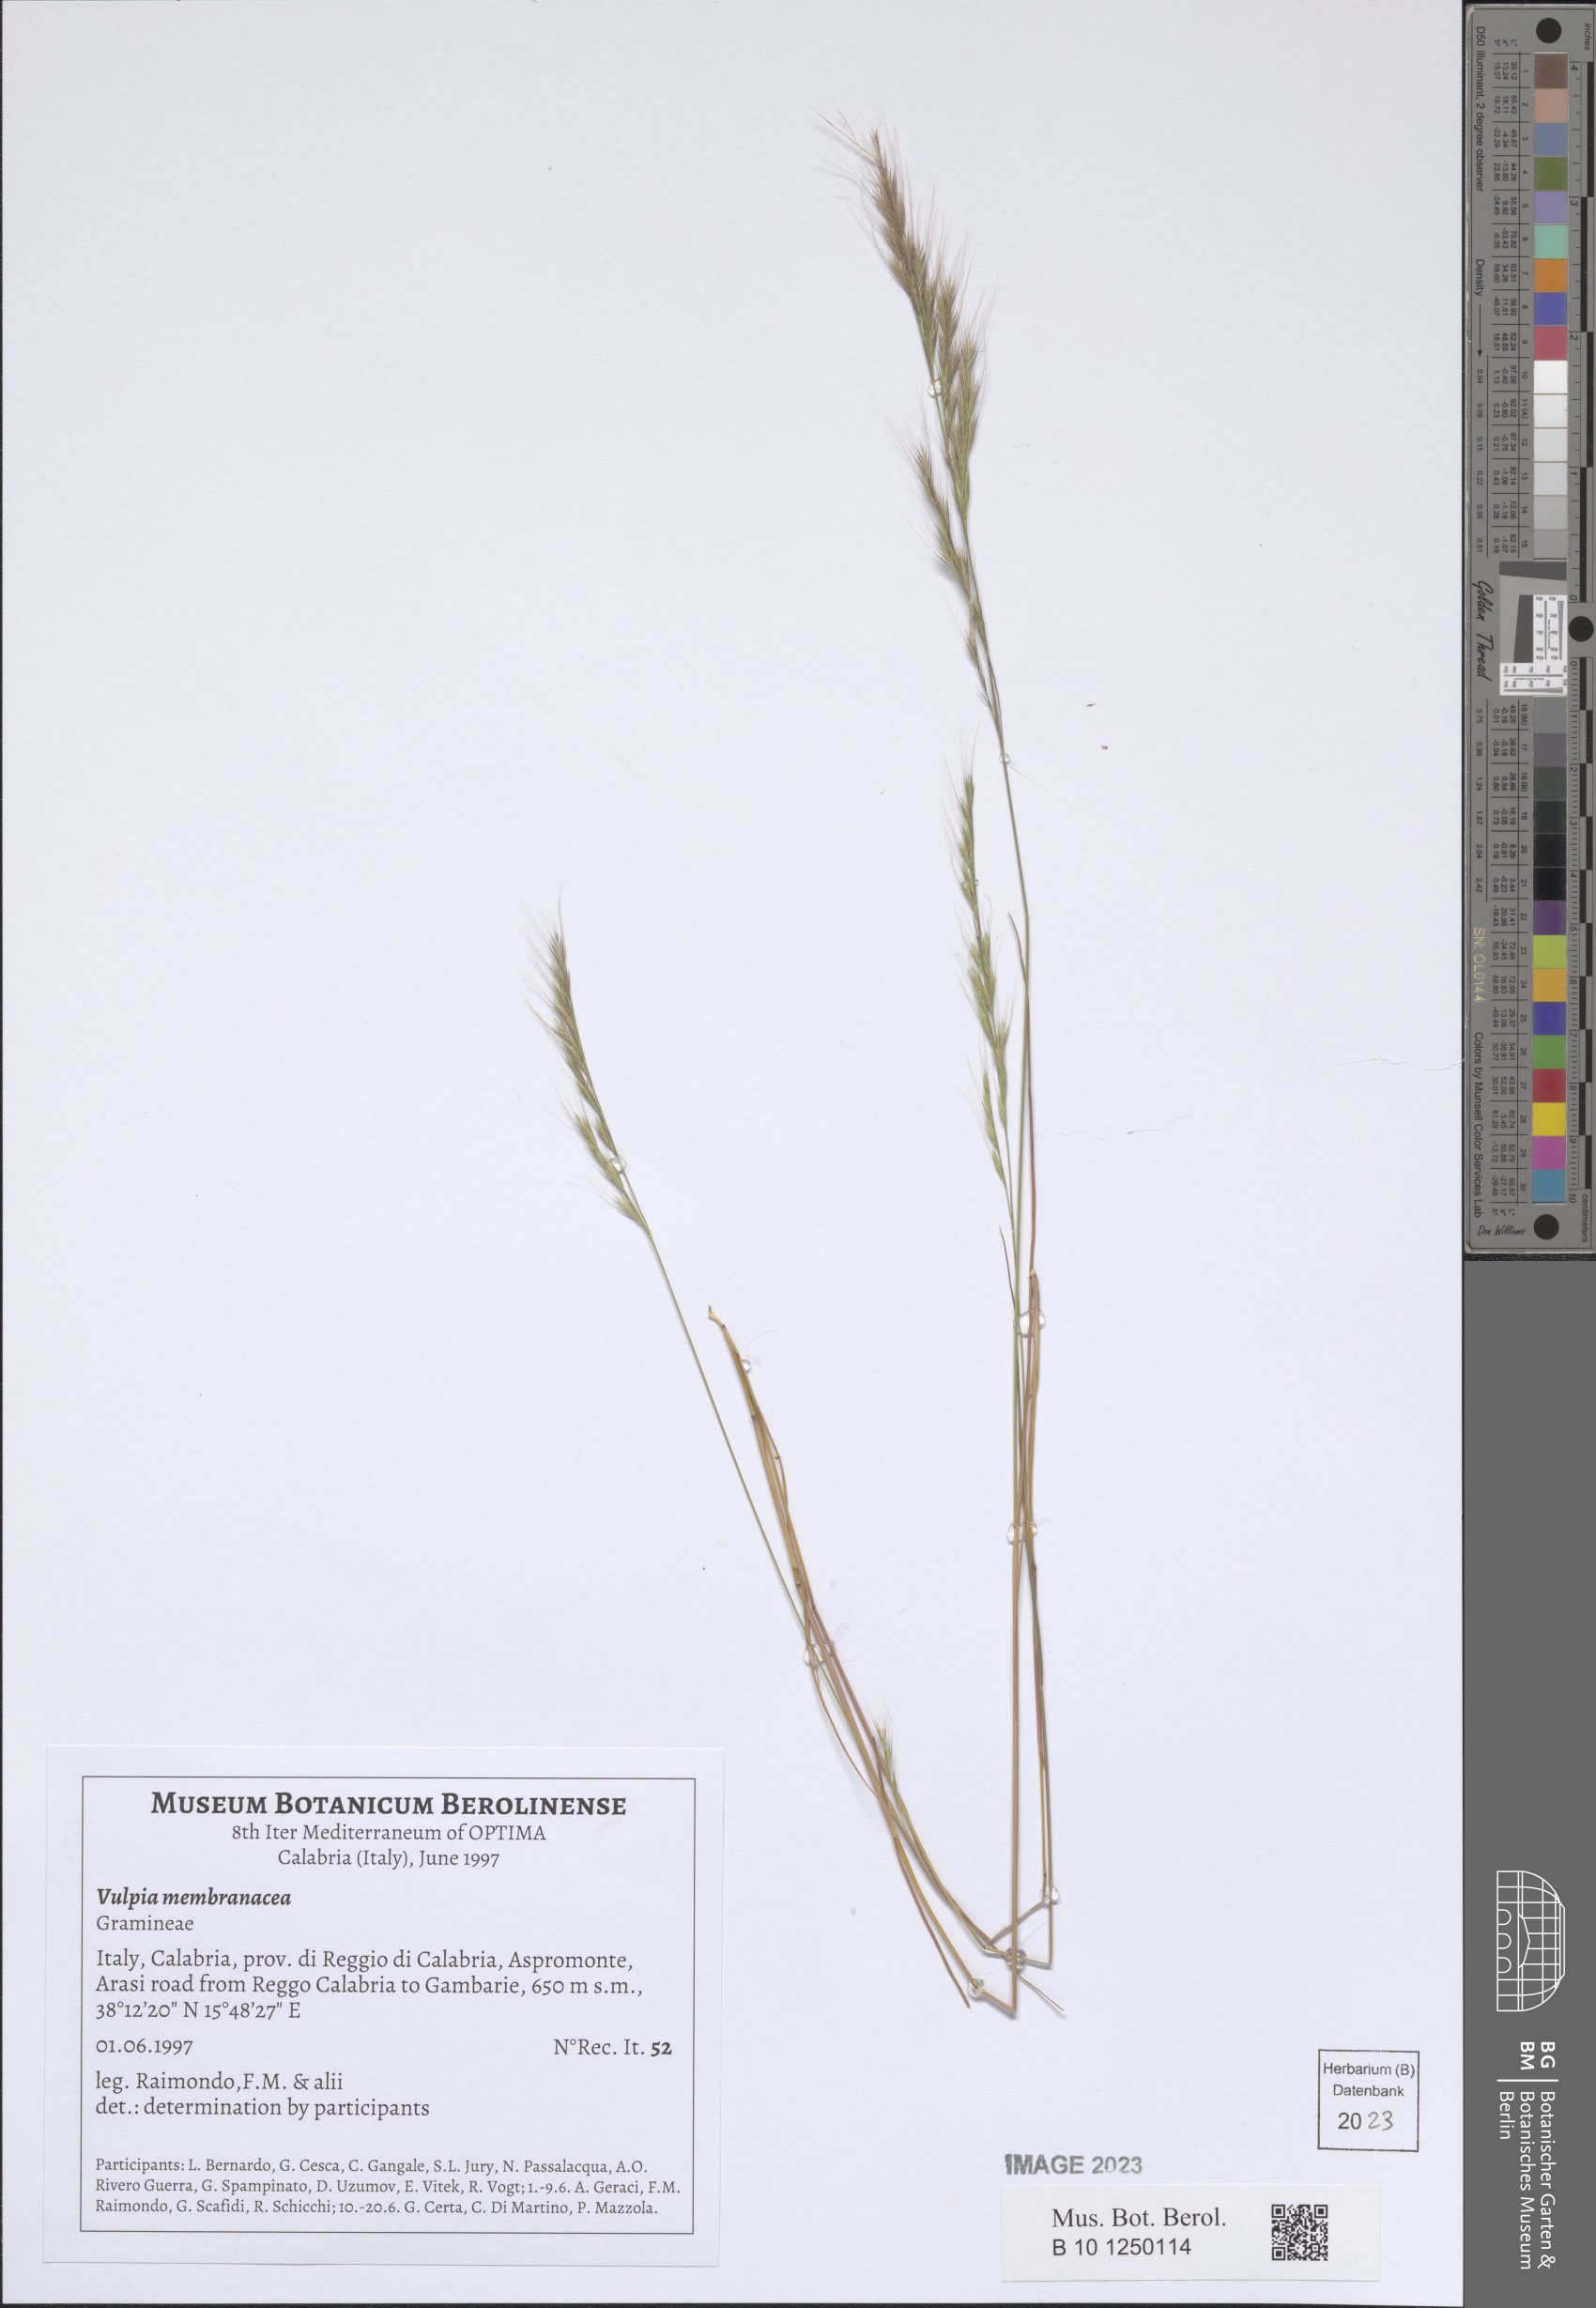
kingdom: Plantae
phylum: Tracheophyta
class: Liliopsida
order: Poales
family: Poaceae
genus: Festuca
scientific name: Festuca membranacea
